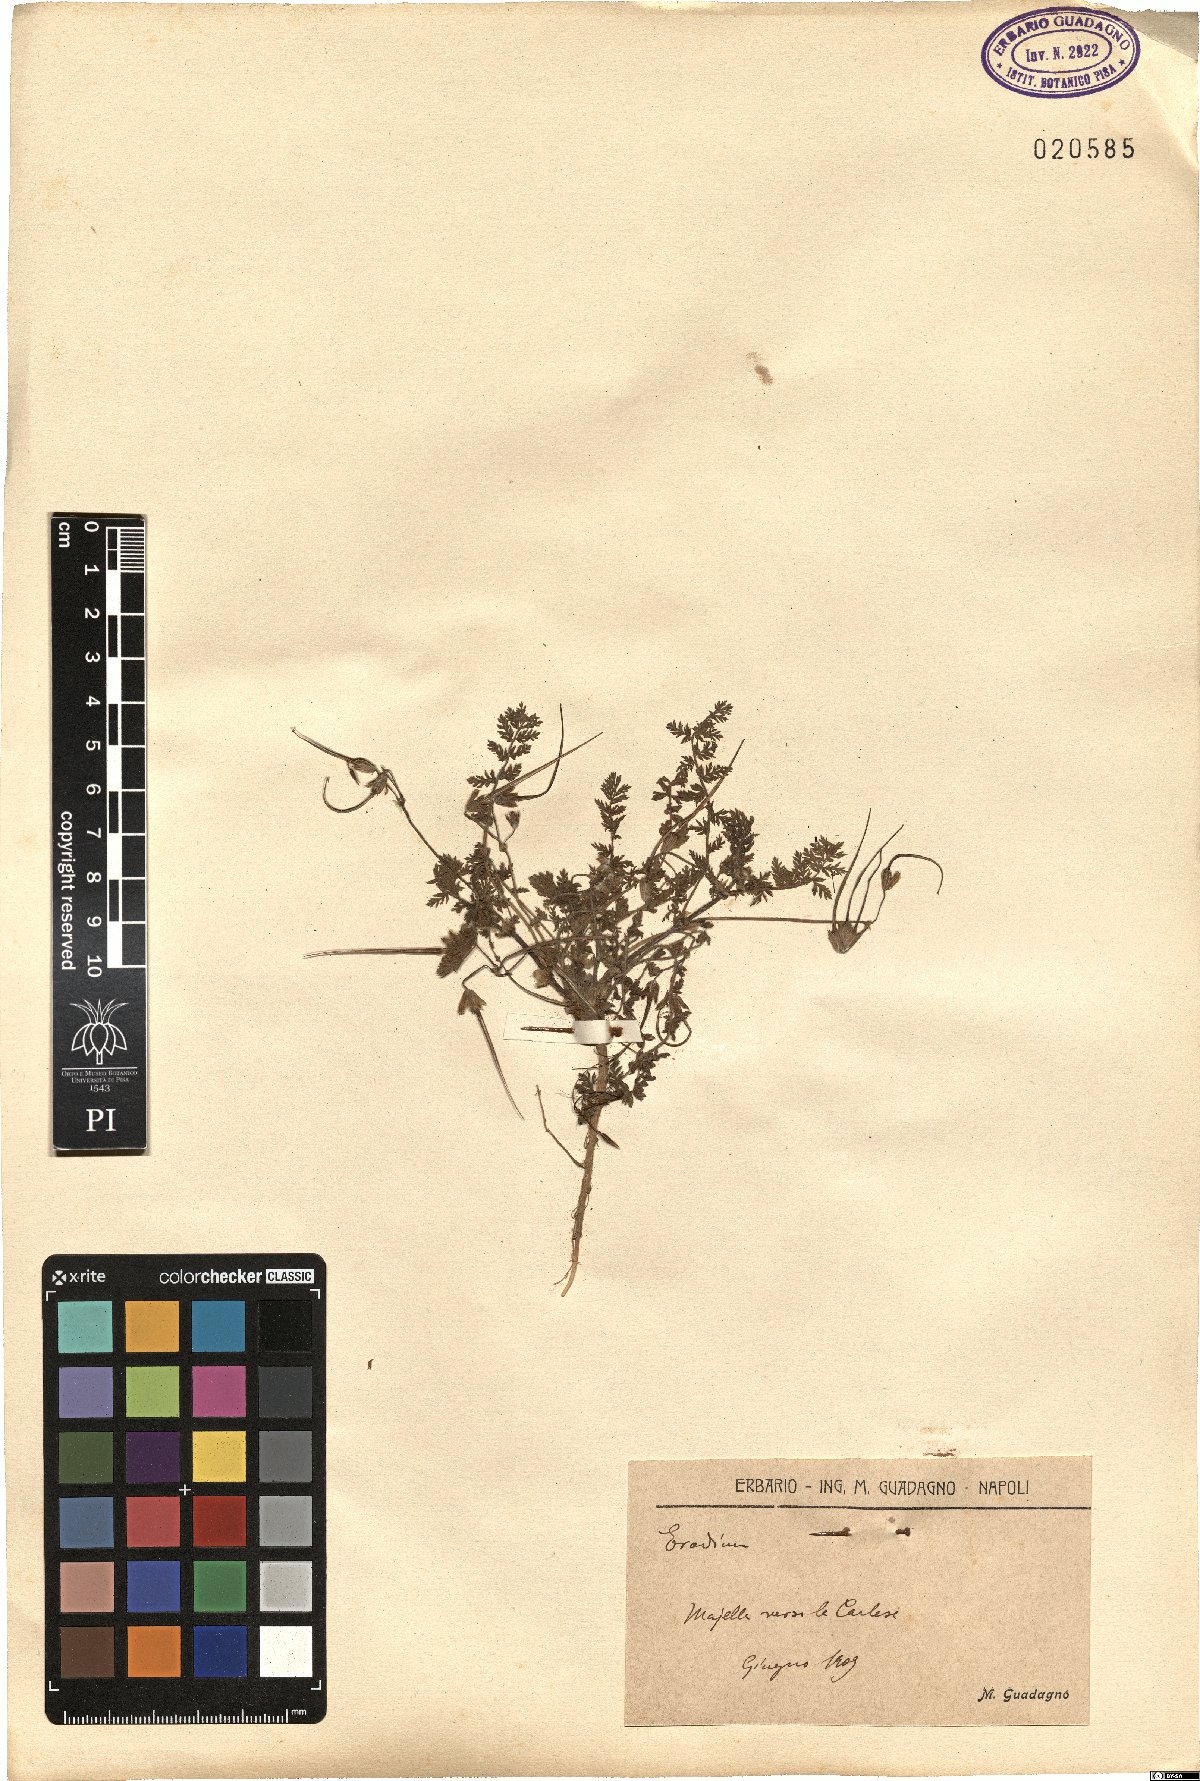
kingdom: Plantae
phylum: Tracheophyta
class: Magnoliopsida
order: Geraniales
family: Geraniaceae
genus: Erodium
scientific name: Erodium
